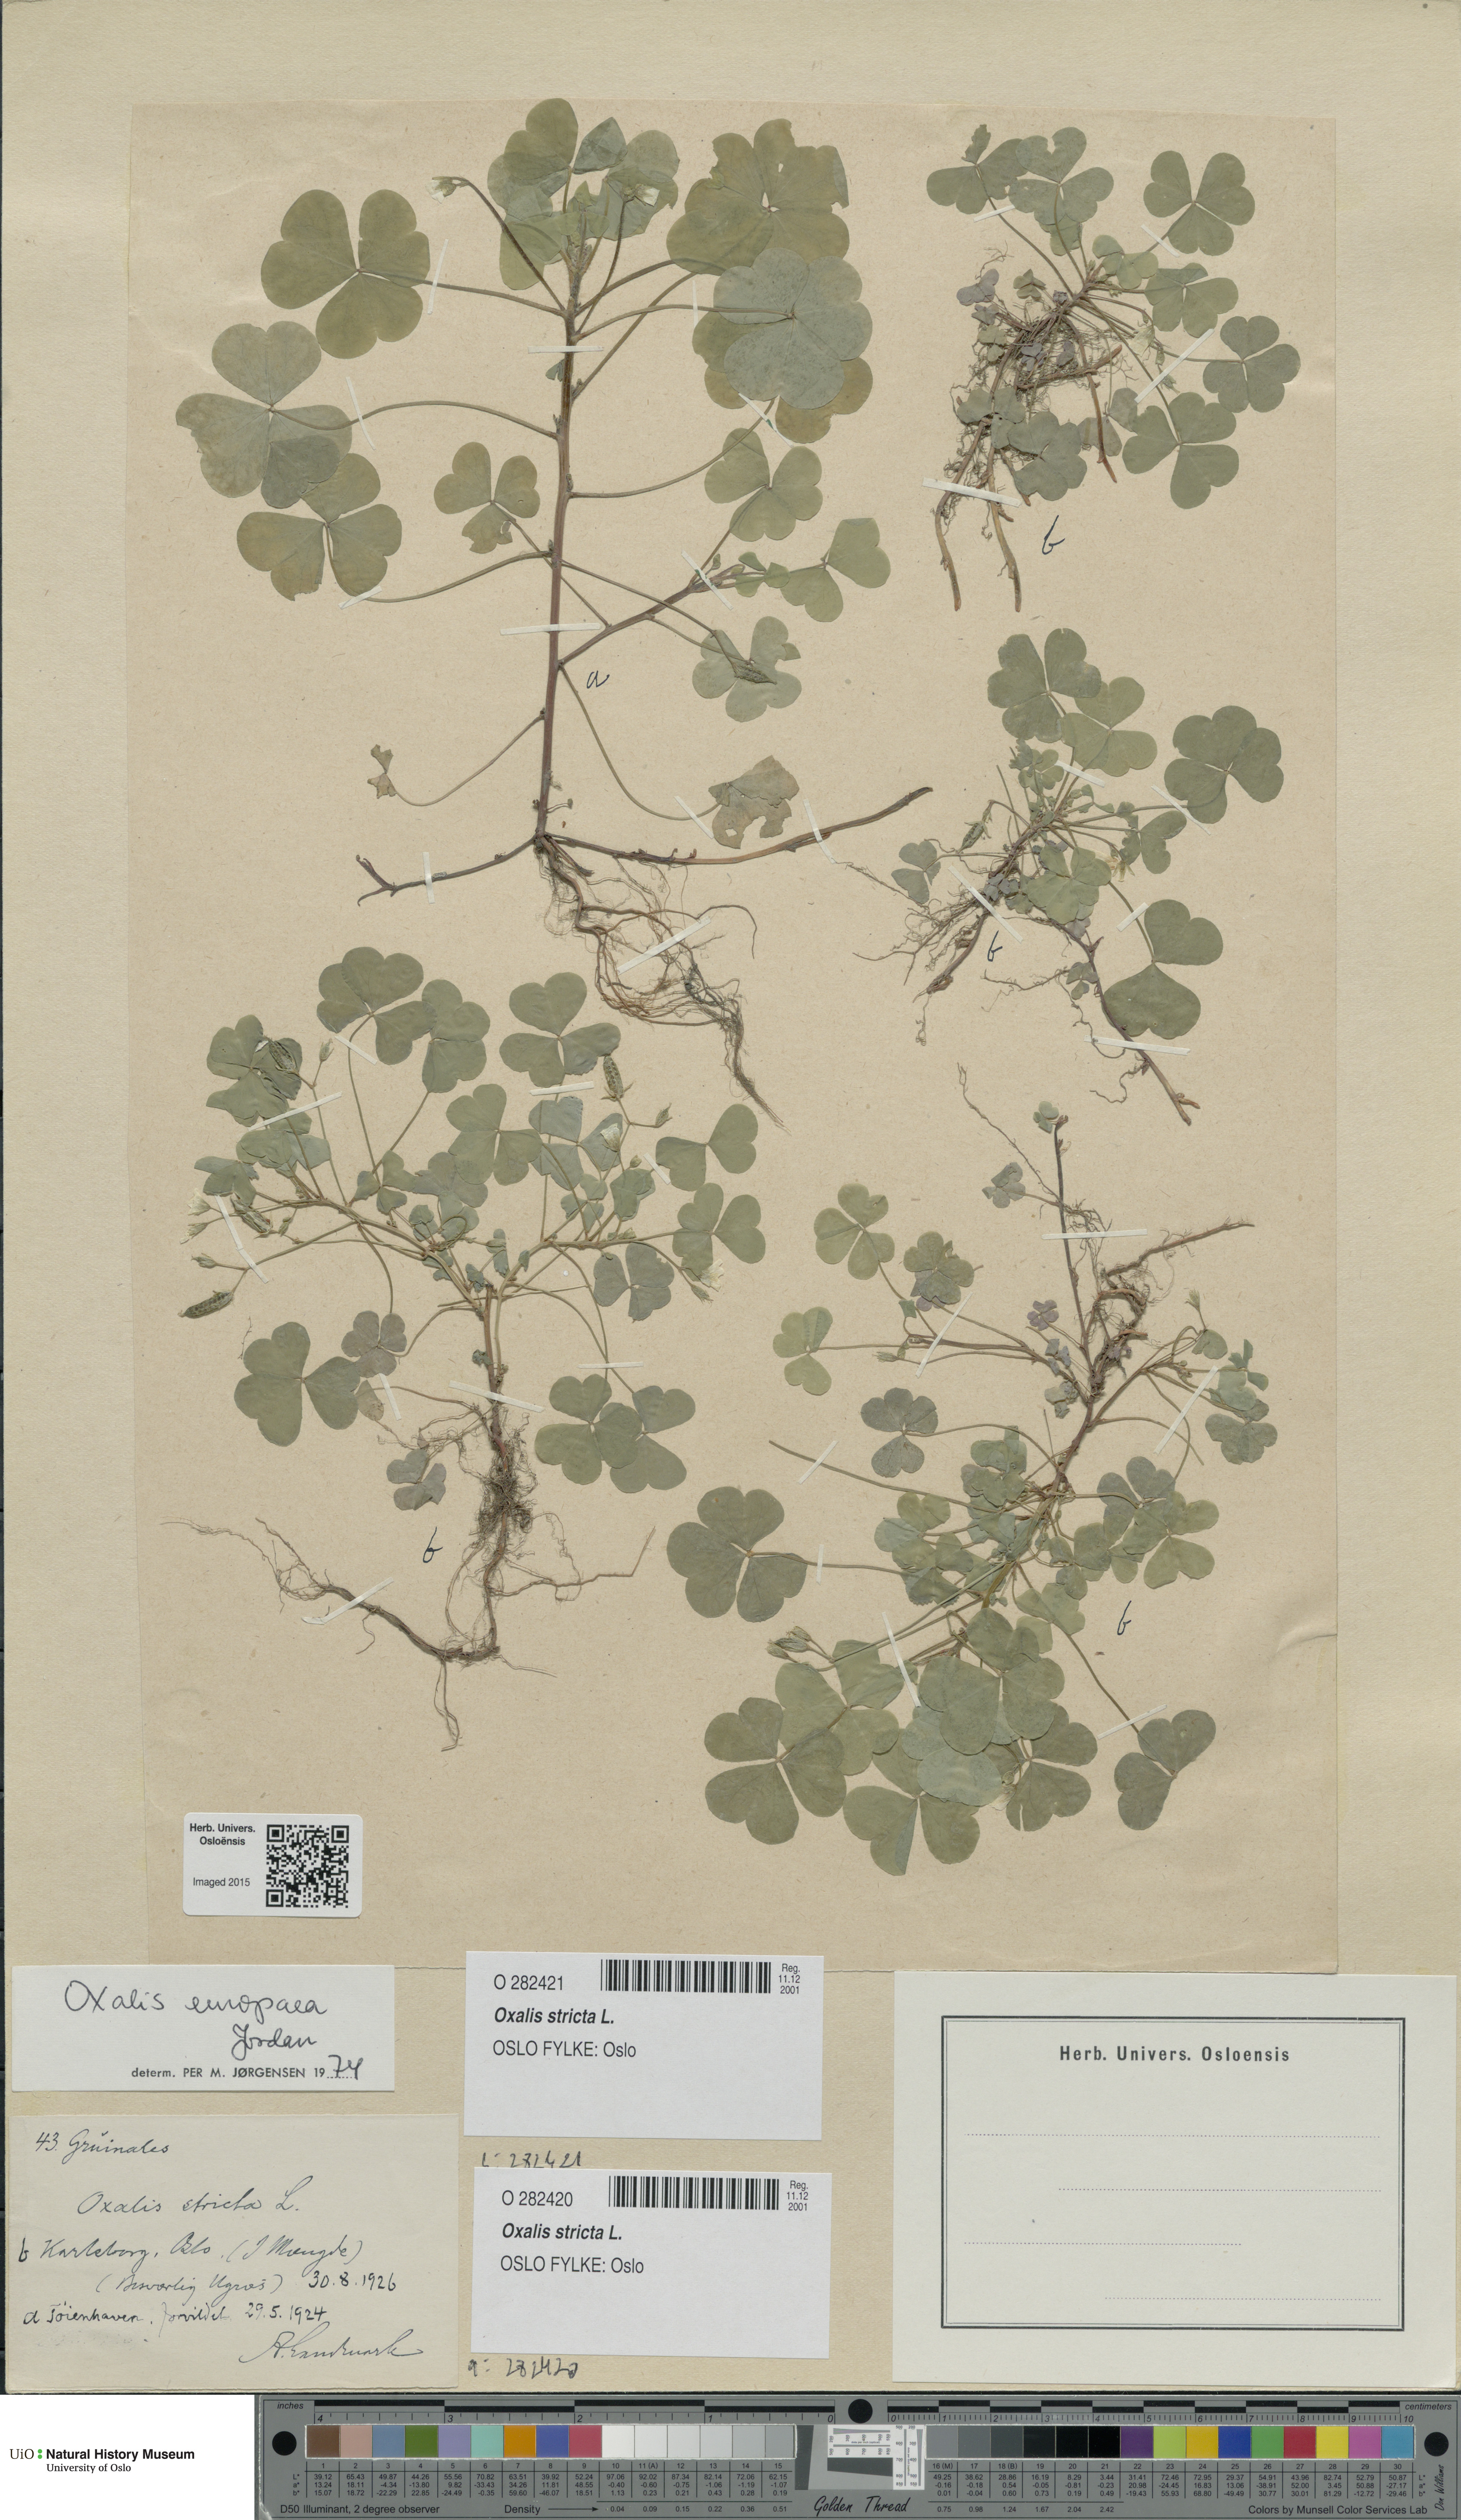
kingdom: Plantae
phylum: Tracheophyta
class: Magnoliopsida
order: Oxalidales
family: Oxalidaceae
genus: Oxalis
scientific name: Oxalis stricta
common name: Upright yellow-sorrel
